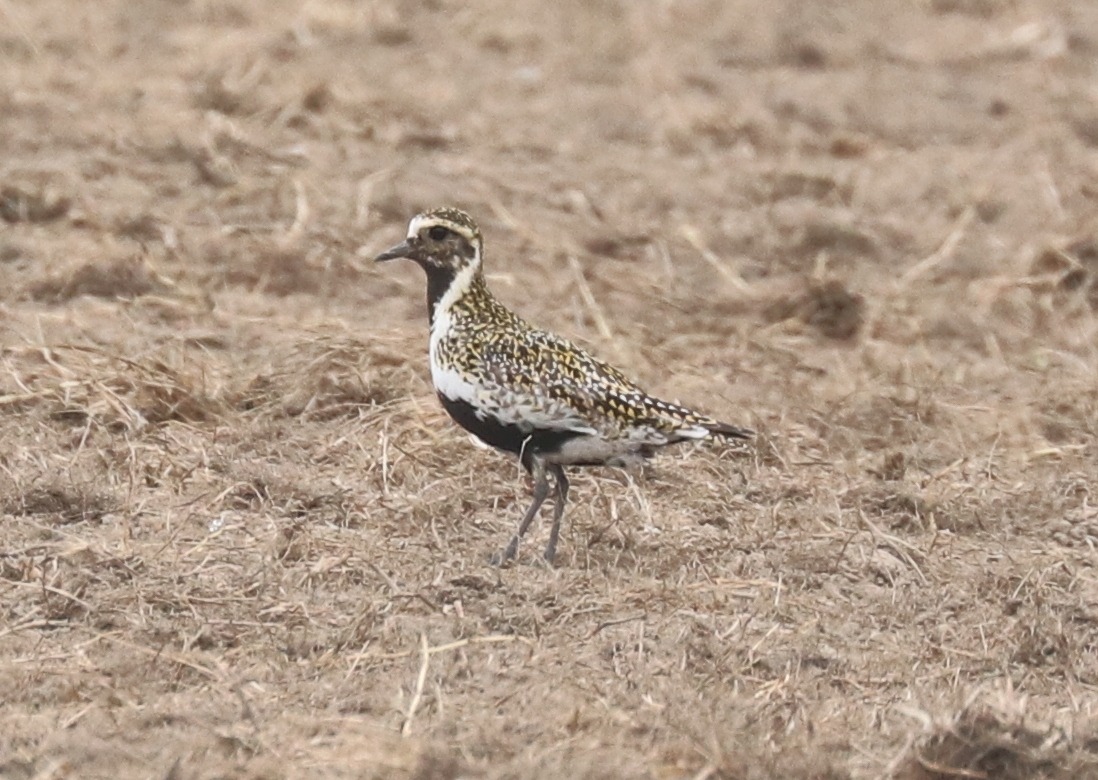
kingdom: Animalia
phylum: Chordata
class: Aves
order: Charadriiformes
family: Charadriidae
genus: Pluvialis
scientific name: Pluvialis apricaria
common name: Hjejle
